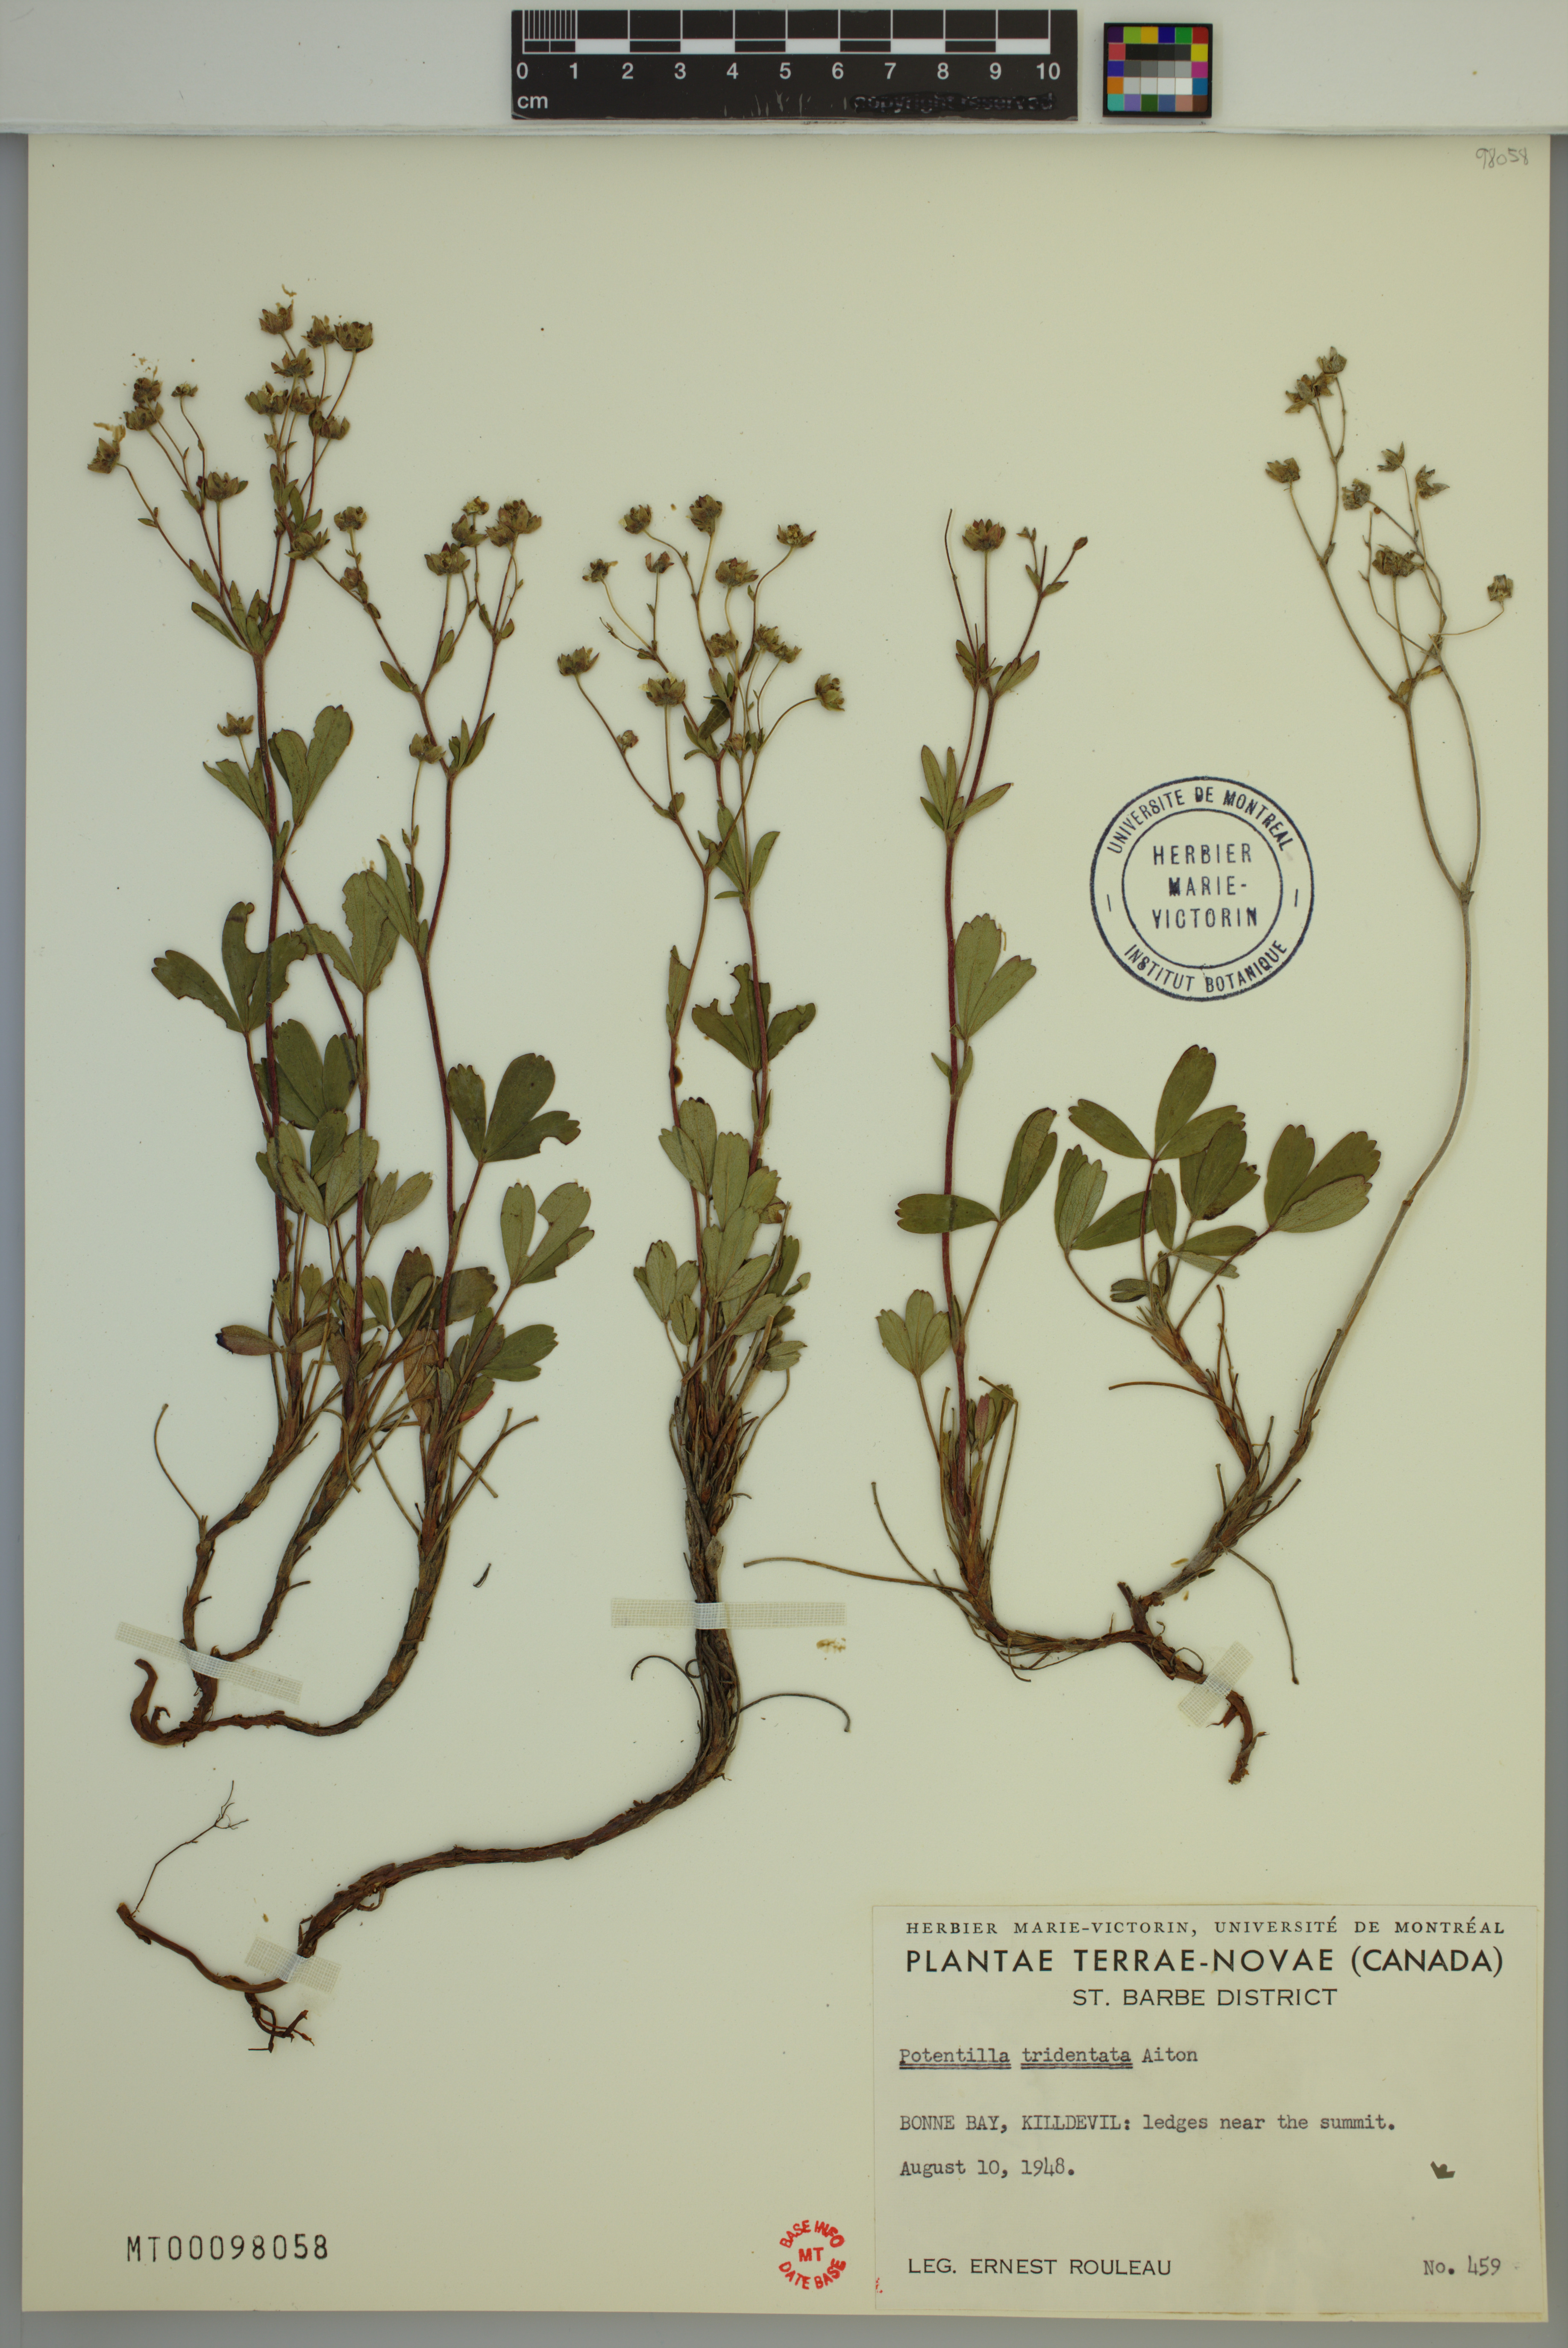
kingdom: Plantae
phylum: Tracheophyta
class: Magnoliopsida
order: Rosales
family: Rosaceae
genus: Sibbaldia
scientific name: Sibbaldia tridentata
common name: Three-toothed cinquefoil
